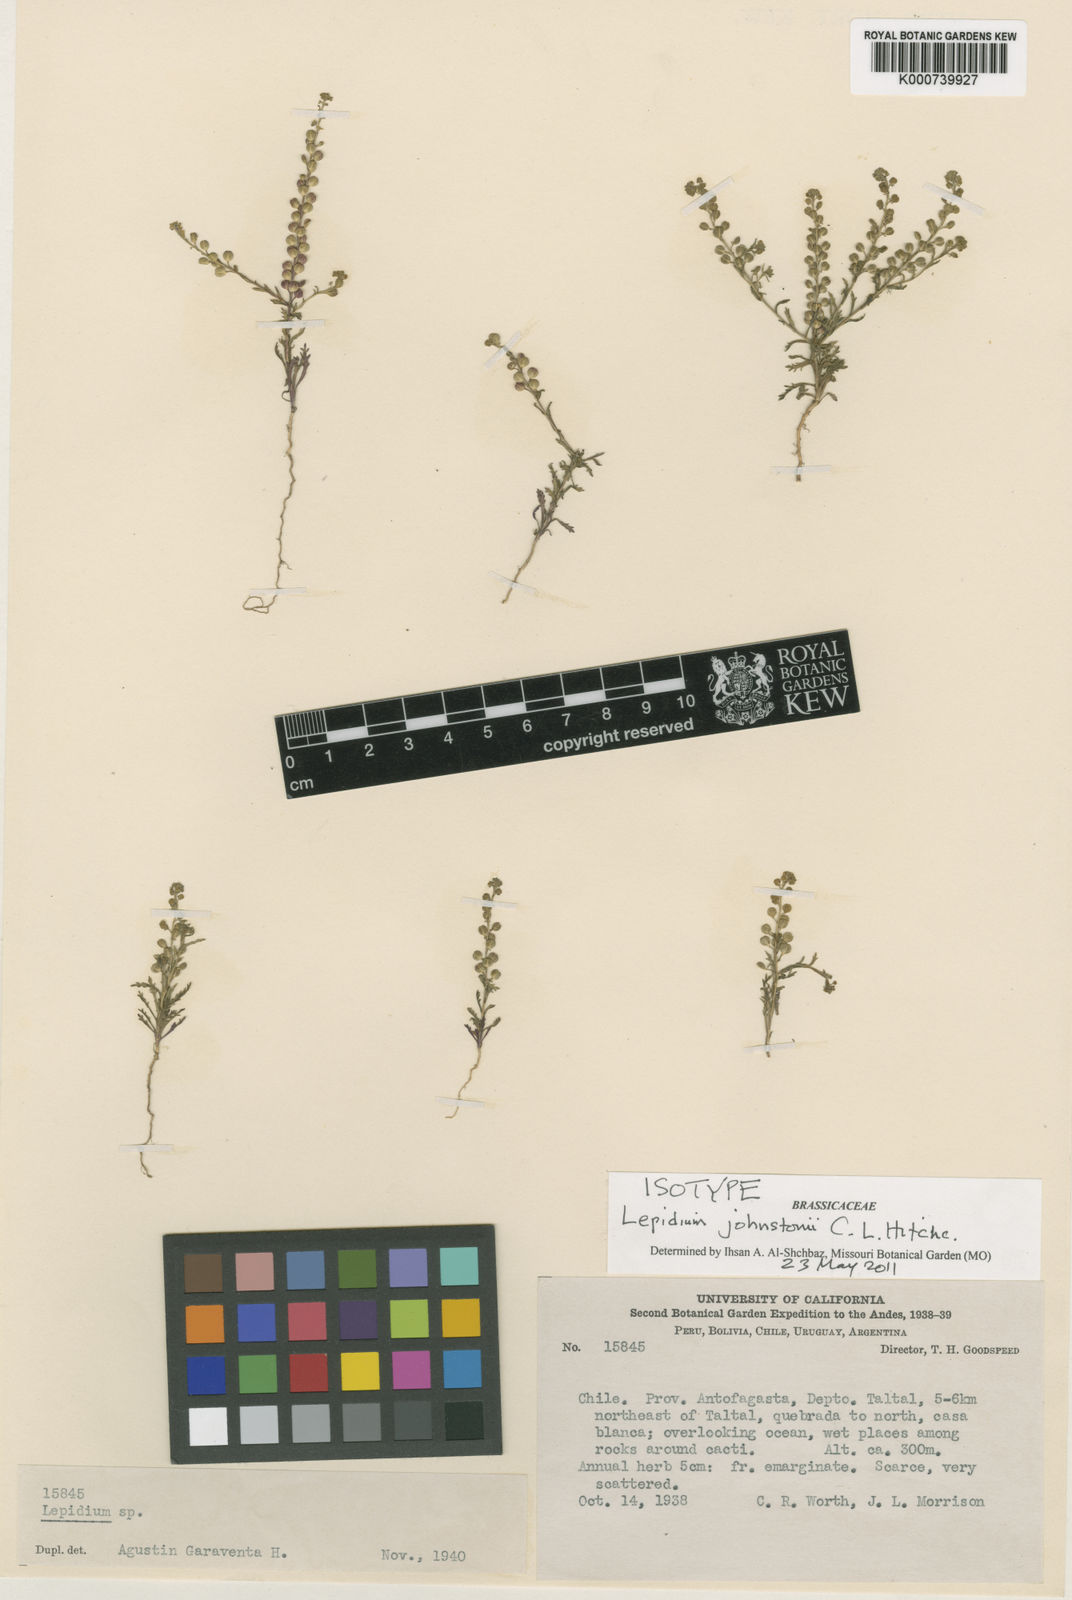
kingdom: Plantae
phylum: Tracheophyta
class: Magnoliopsida
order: Brassicales
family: Brassicaceae
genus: Lepidium
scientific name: Lepidium johnstonii
